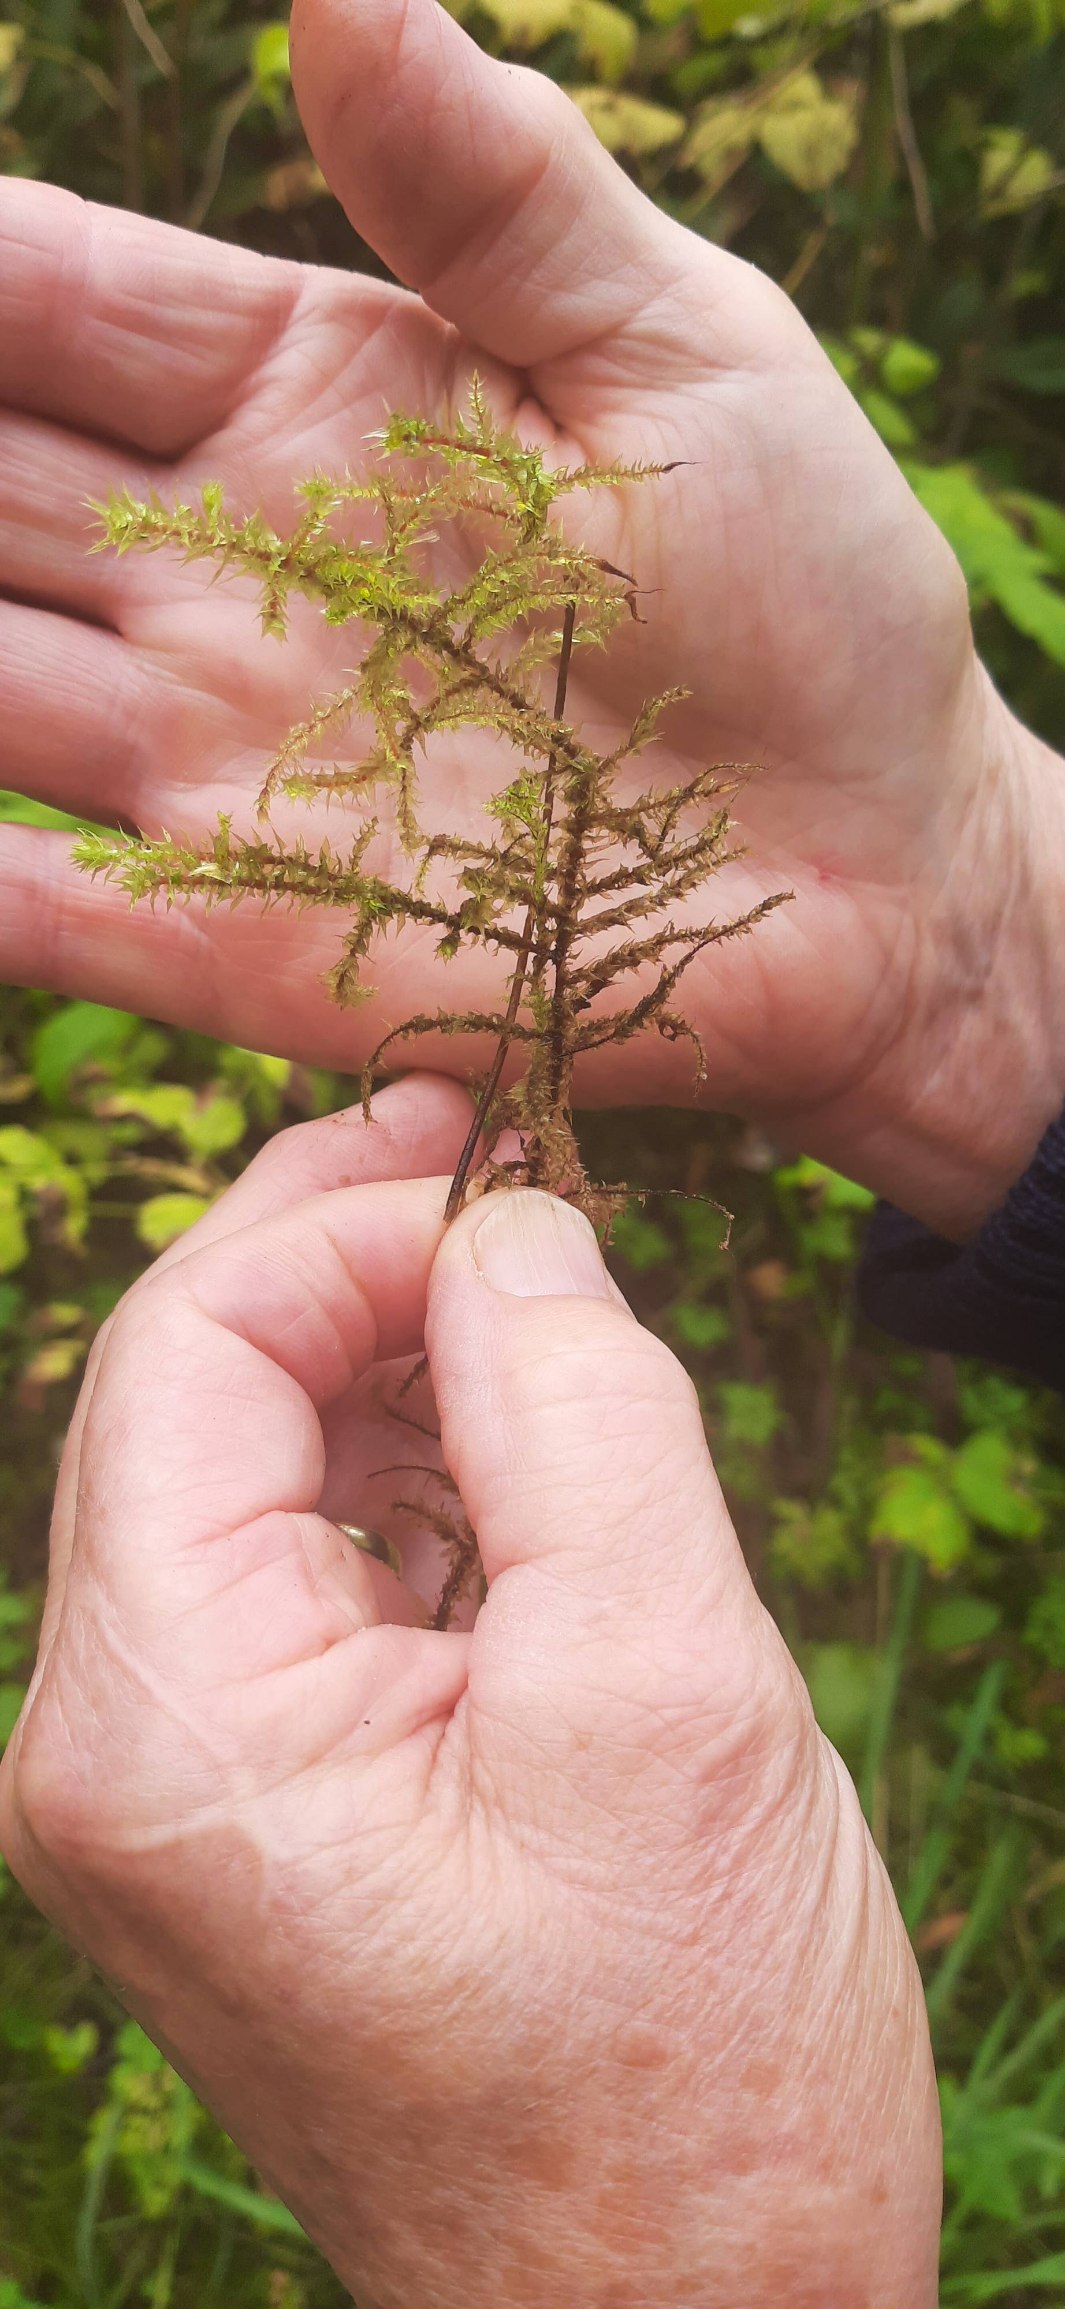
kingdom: Plantae
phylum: Bryophyta
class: Bryopsida
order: Hypnales
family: Hylocomiaceae
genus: Hylocomiadelphus
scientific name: Hylocomiadelphus triquetrus
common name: Stor kransemos
